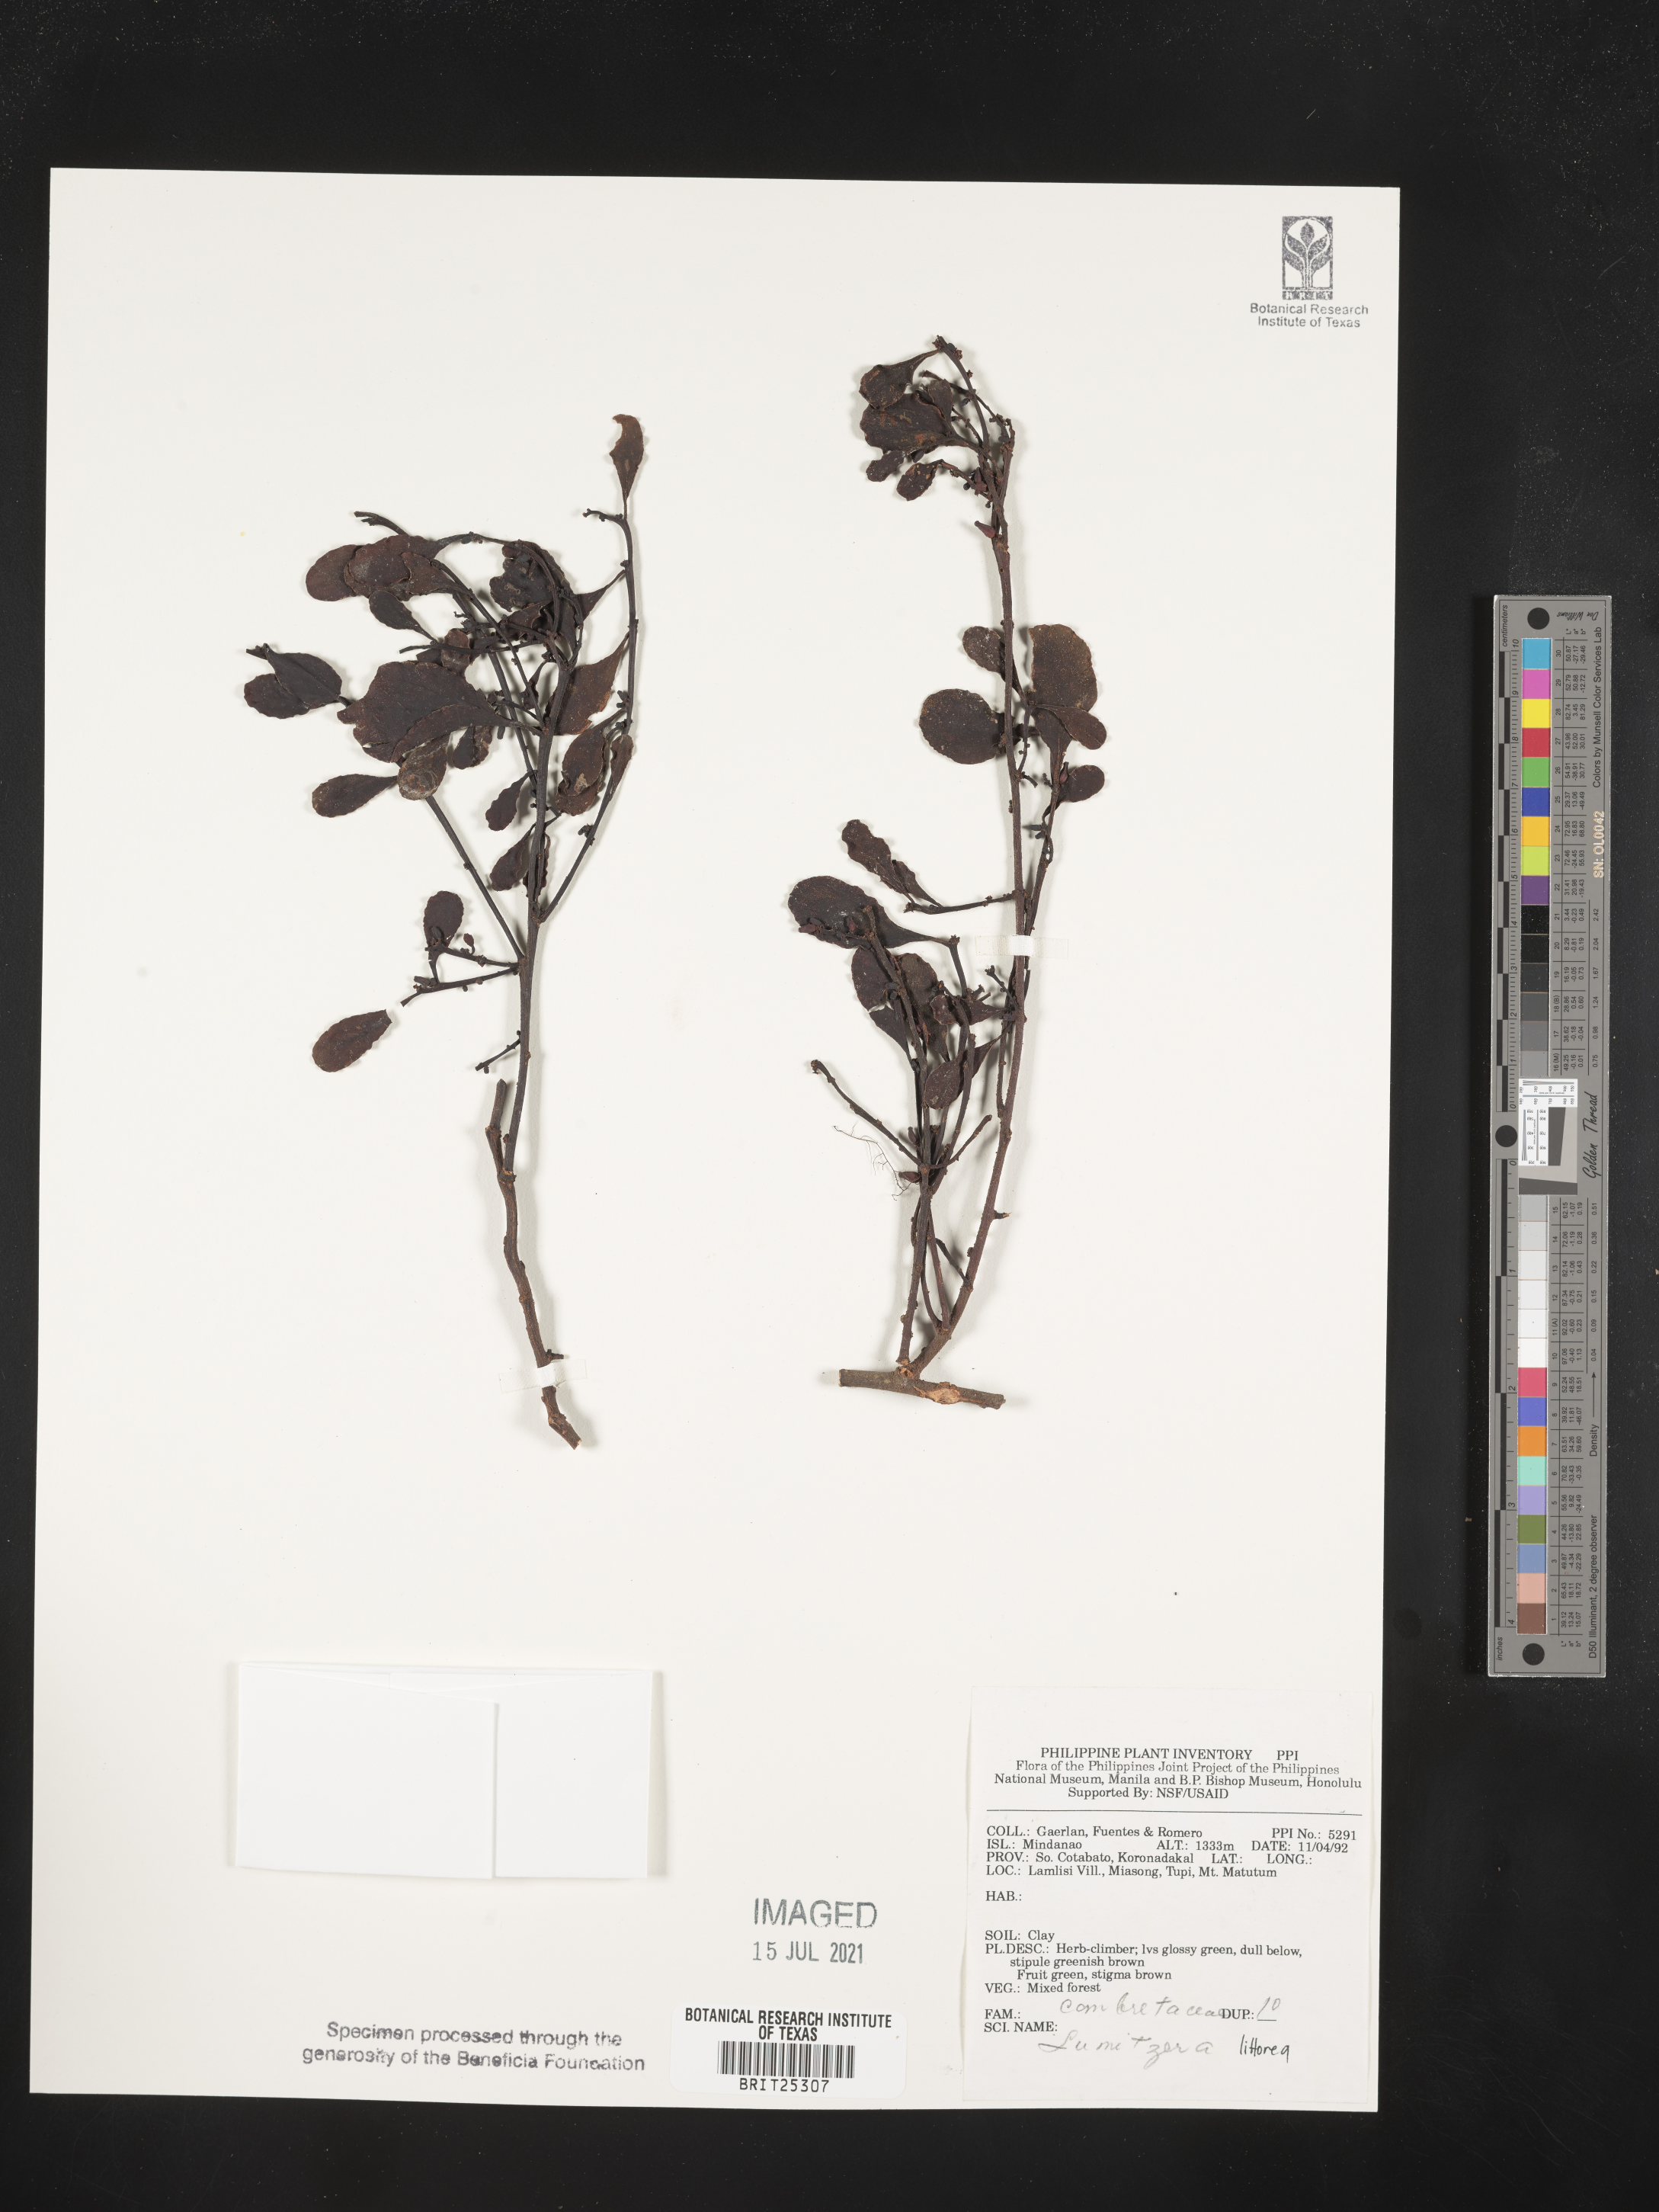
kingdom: Plantae
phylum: Tracheophyta
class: Magnoliopsida
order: Myrtales
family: Combretaceae
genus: Lumnitzera
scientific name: Lumnitzera littorea
